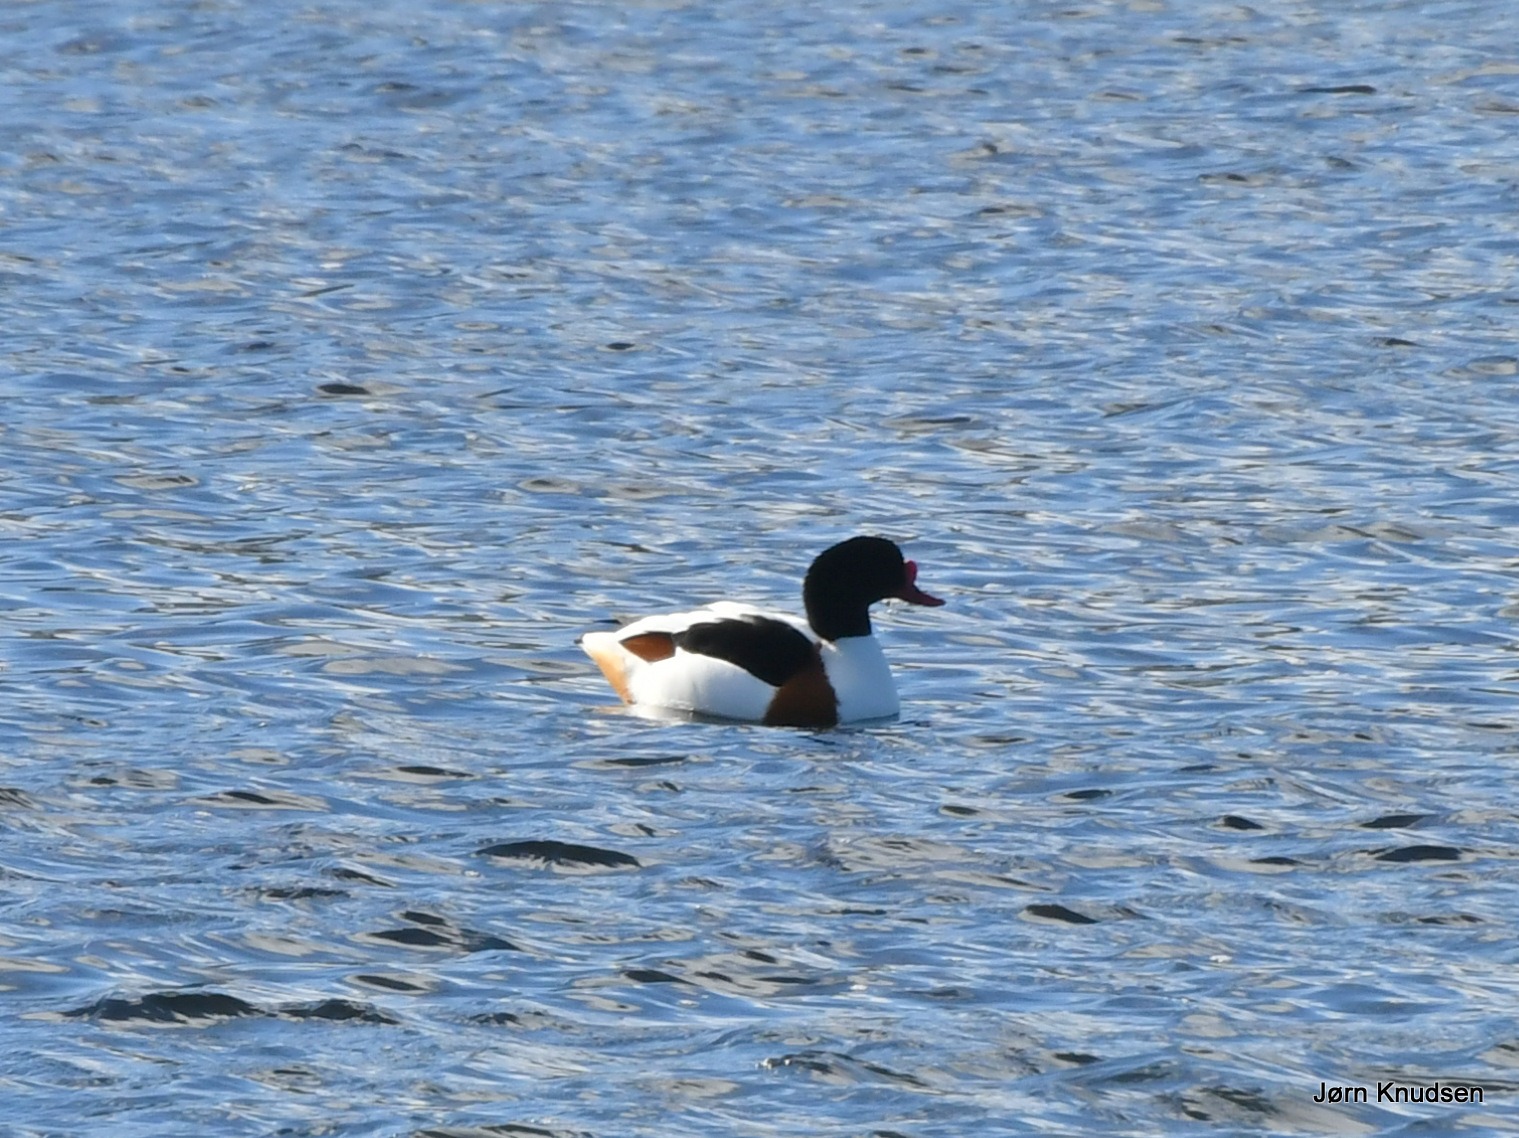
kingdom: Animalia
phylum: Chordata
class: Aves
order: Anseriformes
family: Anatidae
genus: Tadorna
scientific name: Tadorna tadorna
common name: Gravand
